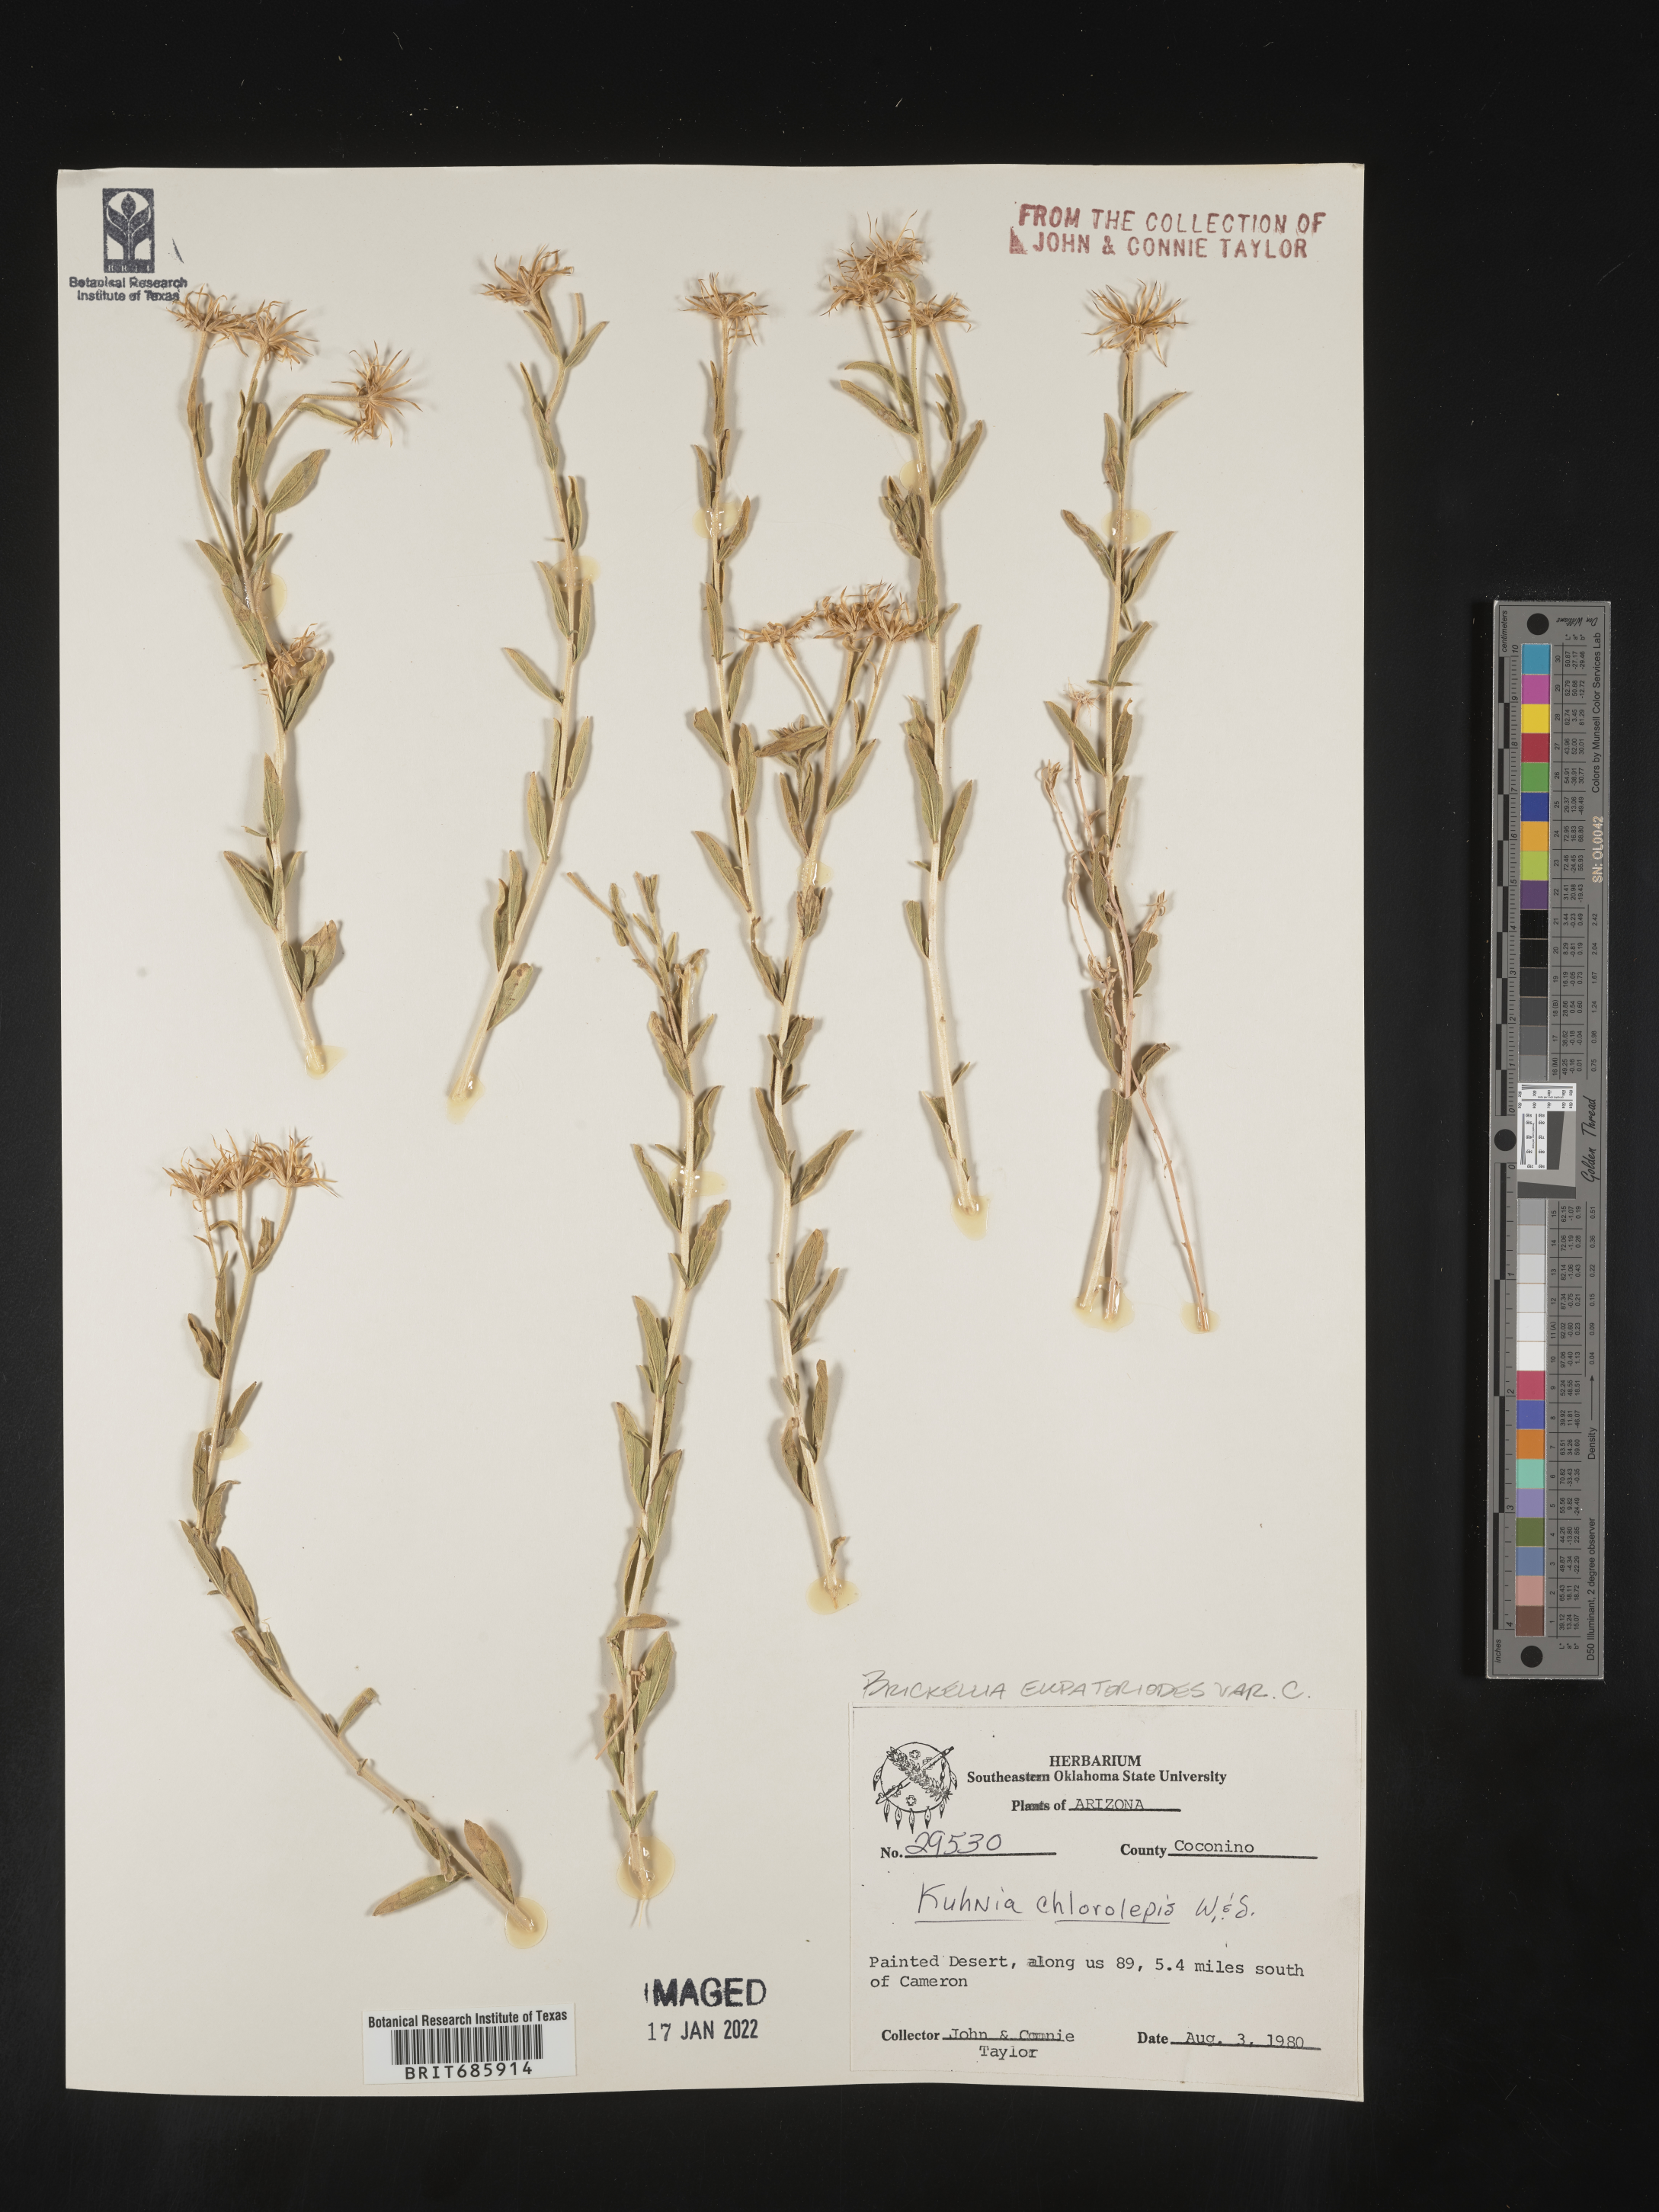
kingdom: Plantae
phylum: Tracheophyta
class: Magnoliopsida
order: Asterales
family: Asteraceae
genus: Brickellia
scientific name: Brickellia ozarkana
